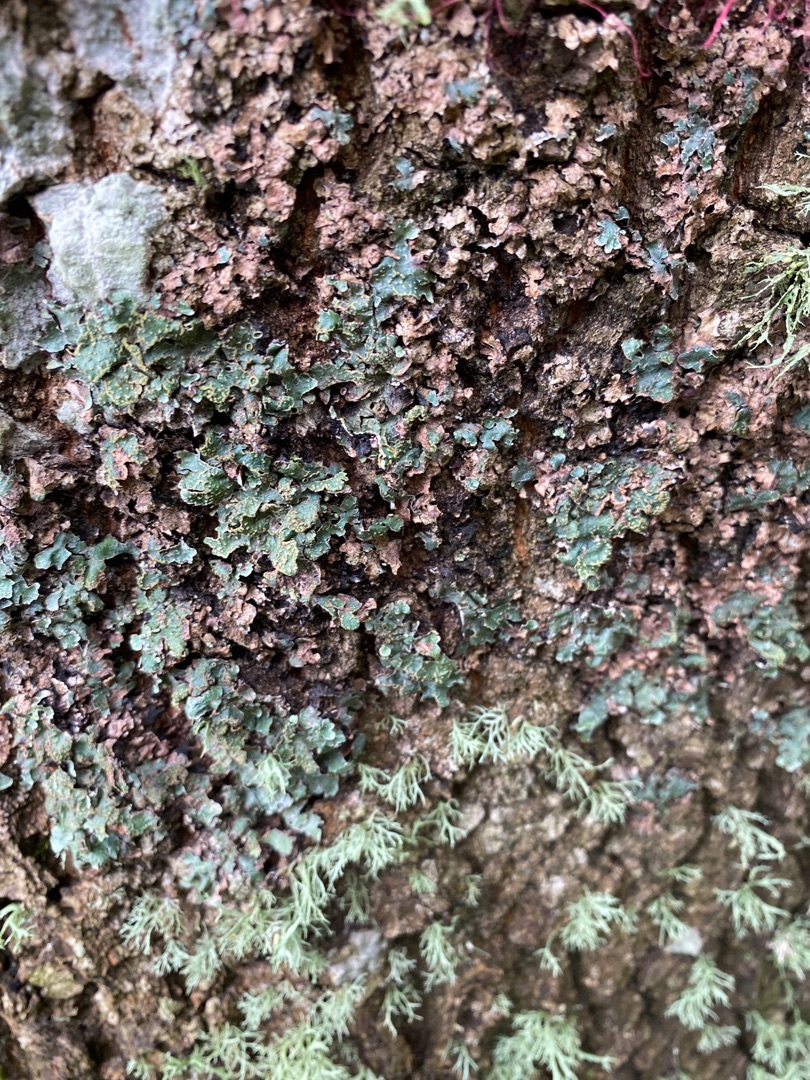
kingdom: Fungi
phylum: Ascomycota
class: Lecanoromycetes
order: Lecanorales
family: Parmeliaceae
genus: Parmelia
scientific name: Parmelia sulcata
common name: Rynket skållav
